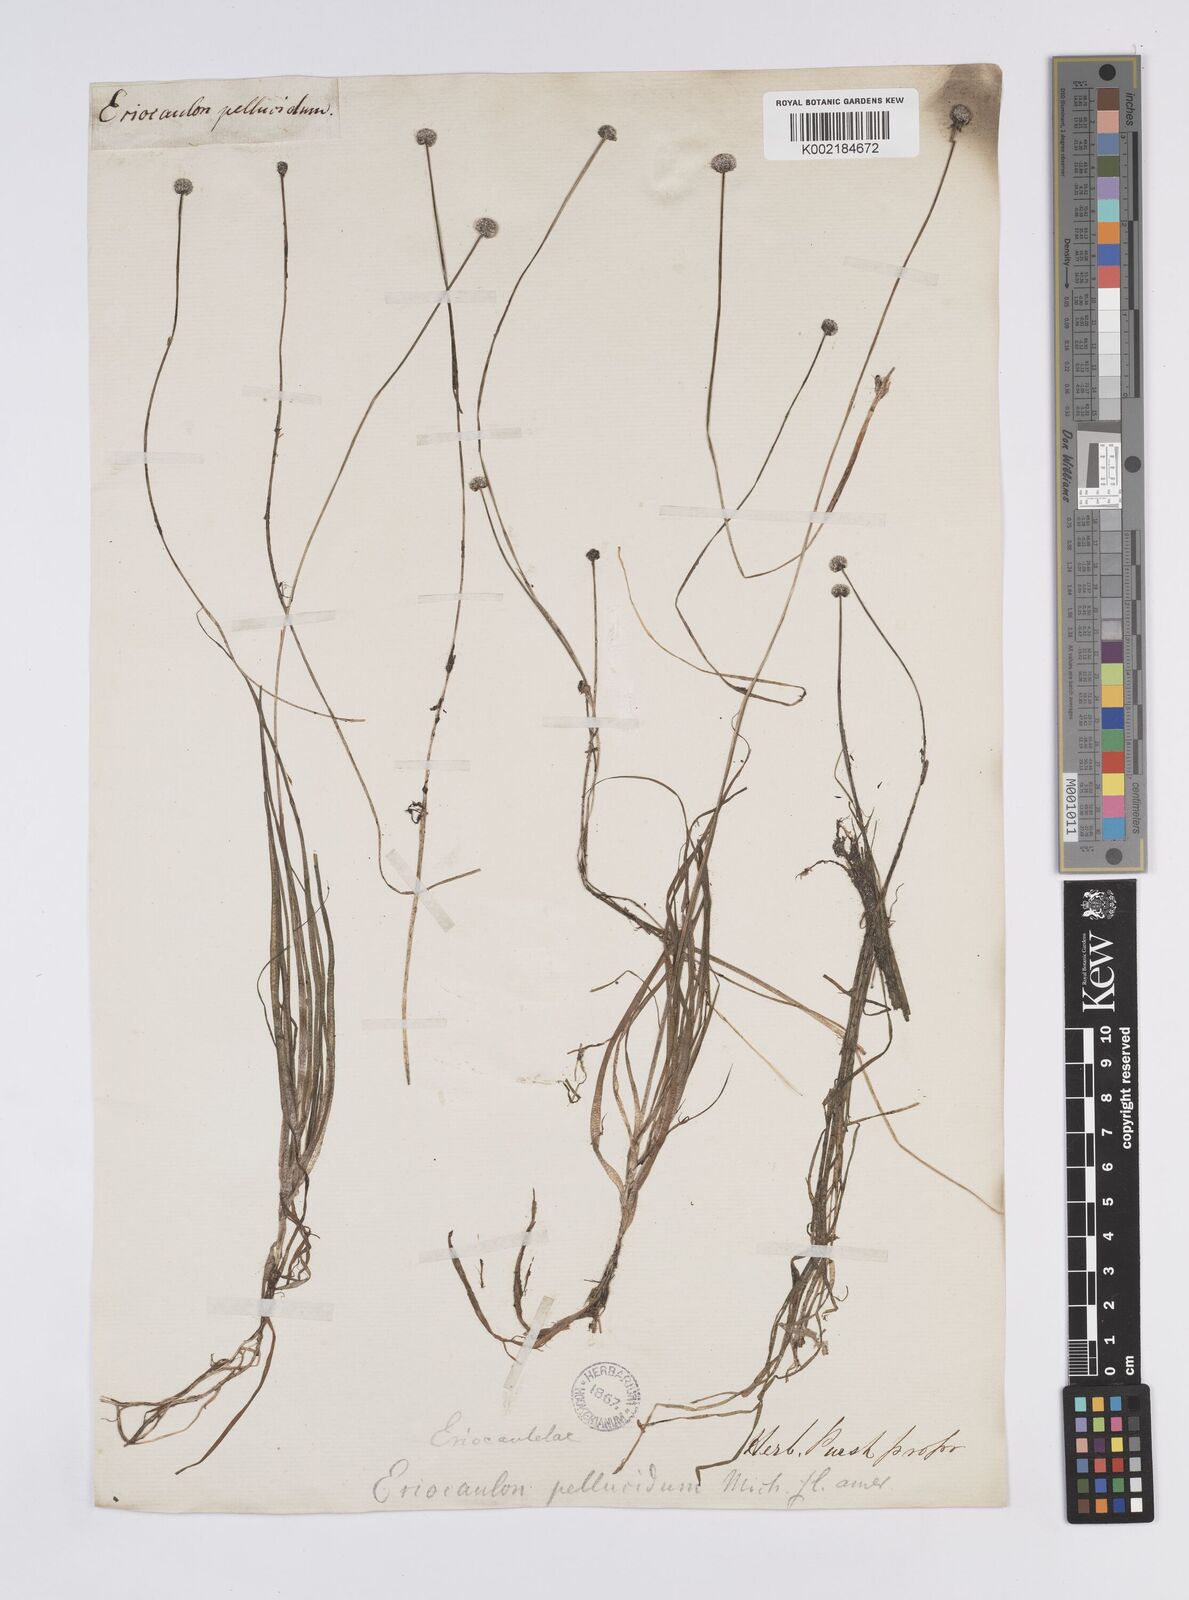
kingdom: Plantae
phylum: Tracheophyta
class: Liliopsida
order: Poales
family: Eriocaulaceae
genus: Eriocaulon
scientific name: Eriocaulon aquaticum
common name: Pipewort
